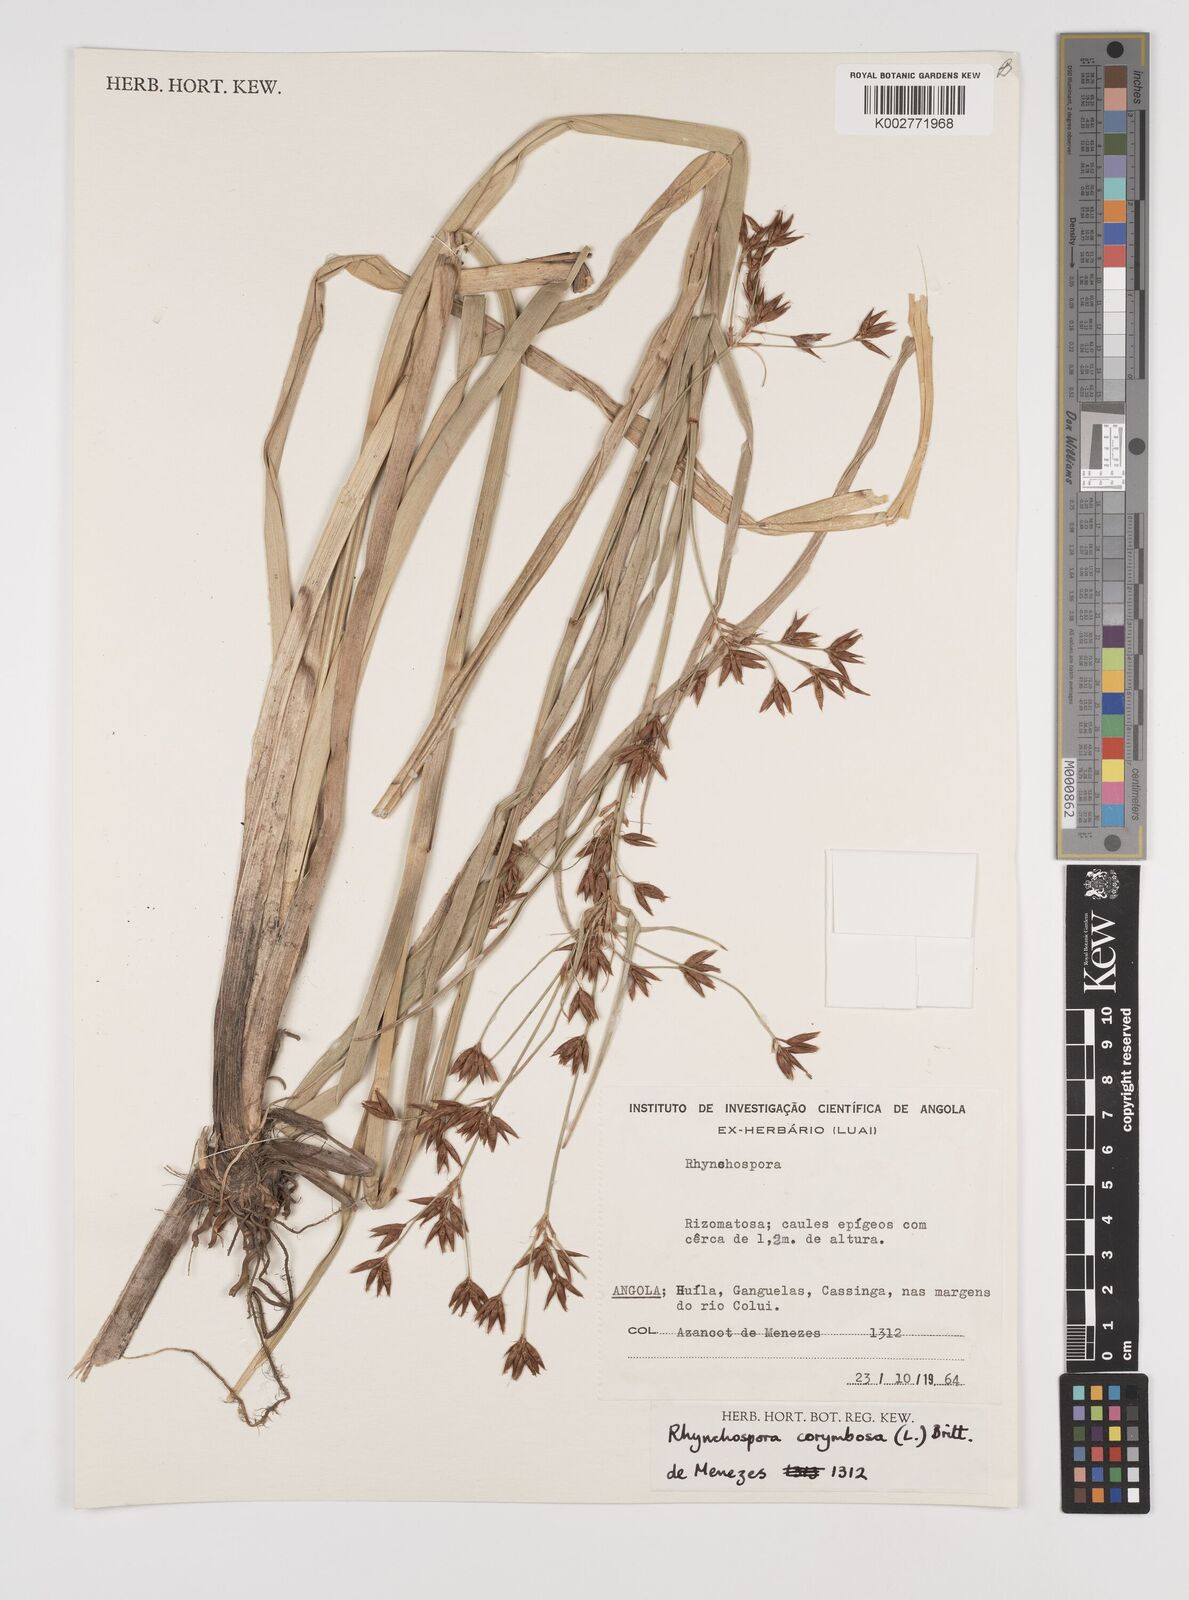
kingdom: Plantae
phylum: Tracheophyta
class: Liliopsida
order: Poales
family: Cyperaceae
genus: Rhynchospora
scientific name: Rhynchospora corymbosa
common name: Golden beak sedge
